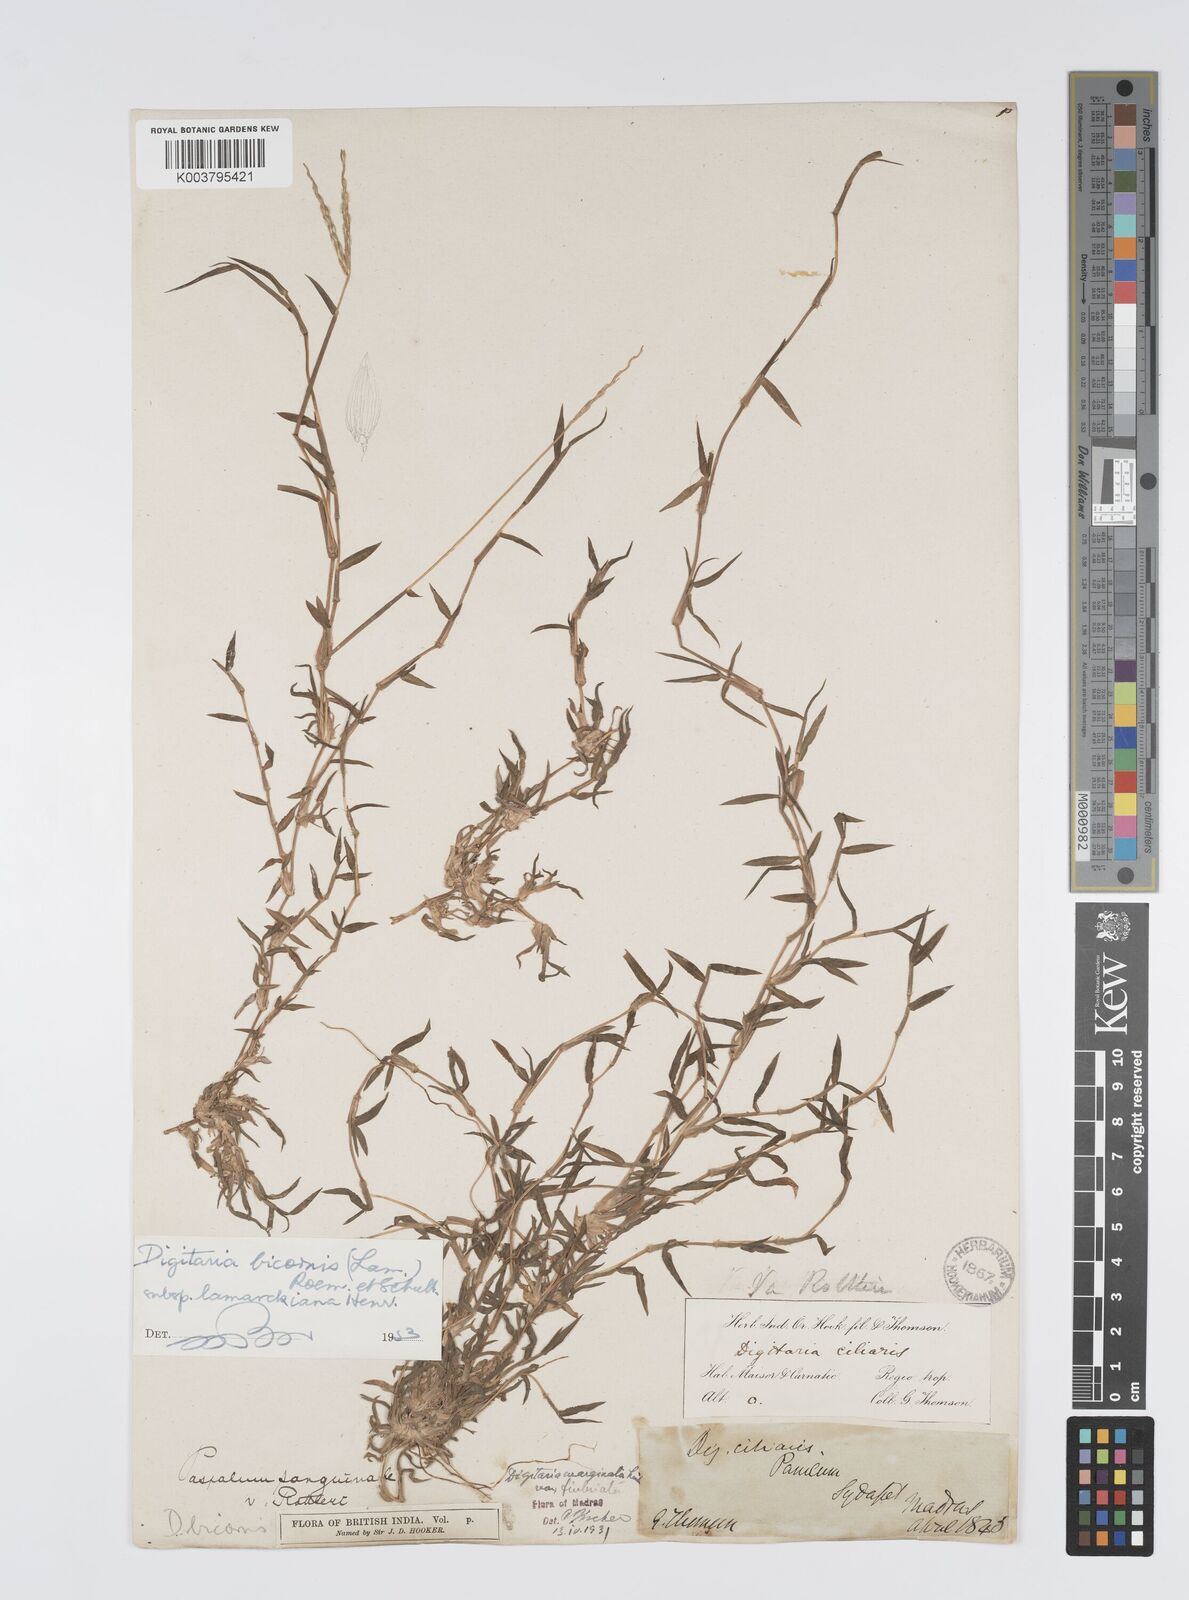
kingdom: Plantae
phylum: Tracheophyta
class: Liliopsida
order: Poales
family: Poaceae
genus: Digitaria
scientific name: Digitaria bicornis
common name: Asian crabgrass
